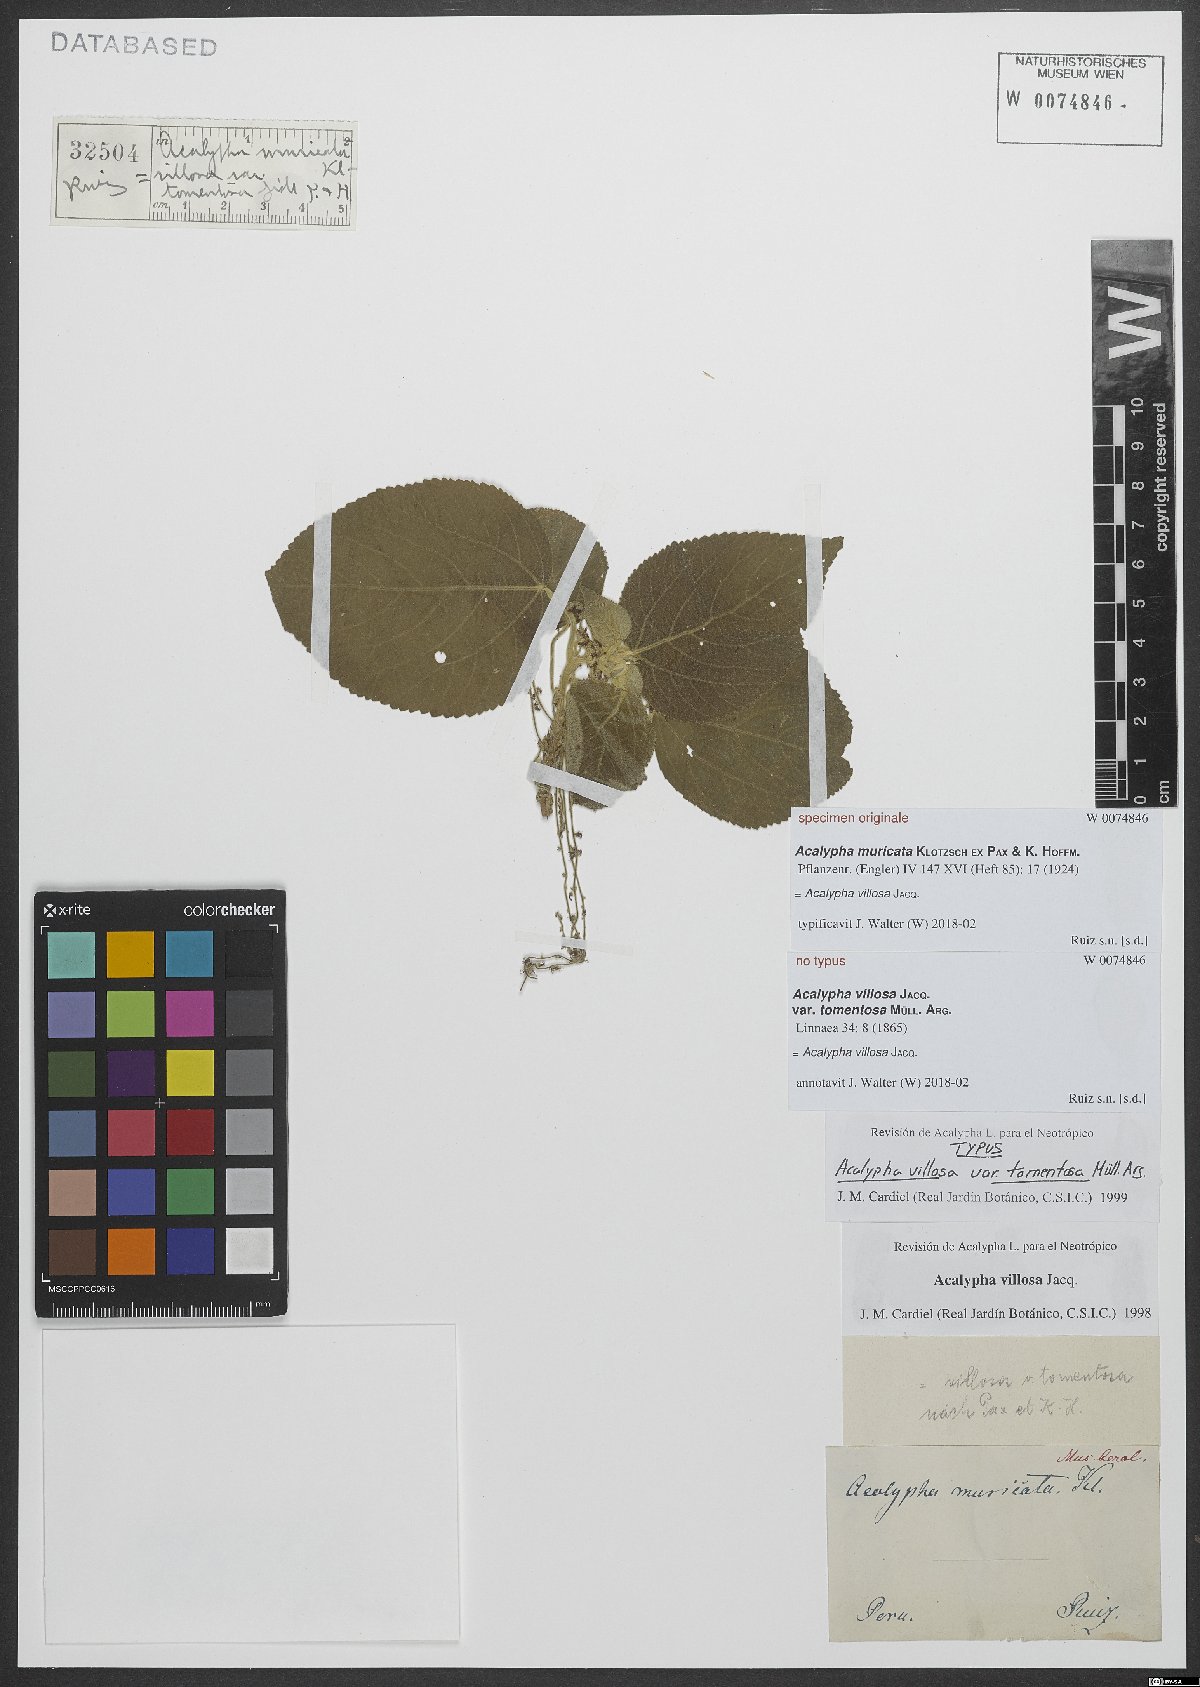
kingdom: Plantae
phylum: Tracheophyta
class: Magnoliopsida
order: Malpighiales
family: Euphorbiaceae
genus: Acalypha
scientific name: Acalypha villosa
